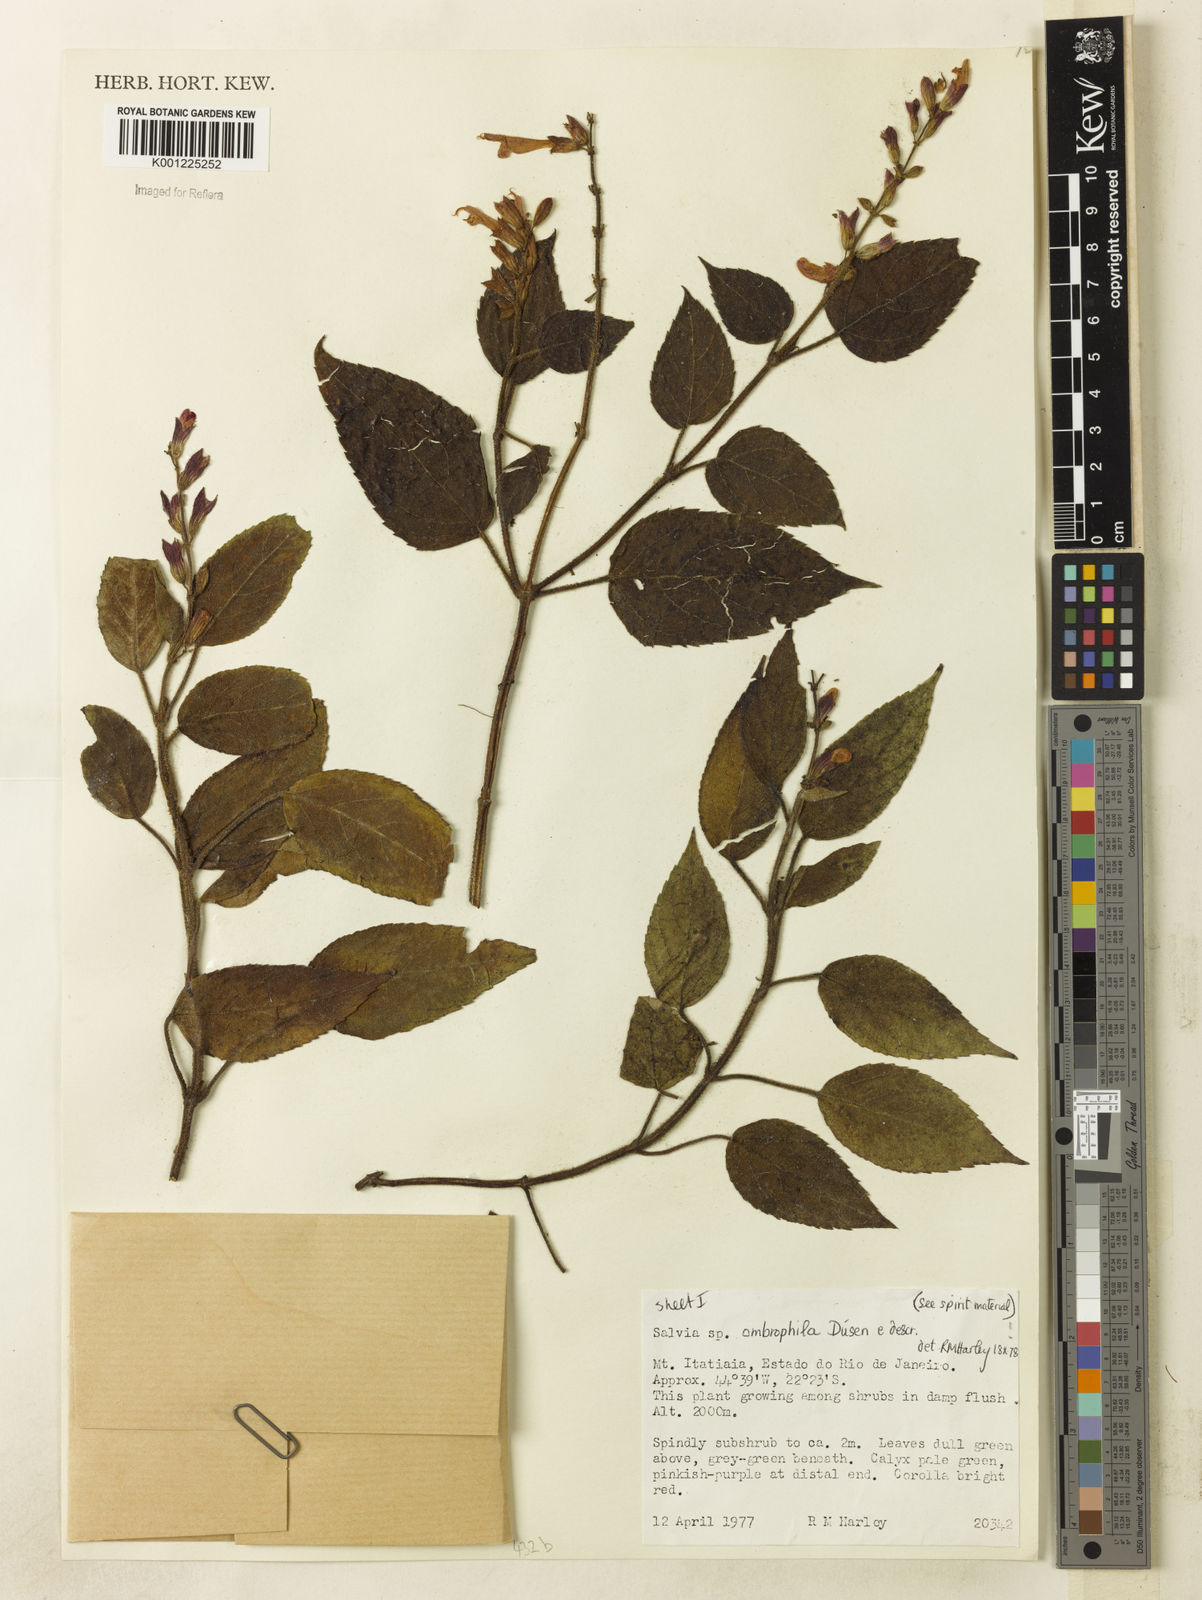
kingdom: Plantae
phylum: Tracheophyta
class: Magnoliopsida
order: Lamiales
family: Lamiaceae
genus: Salvia
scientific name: Salvia
